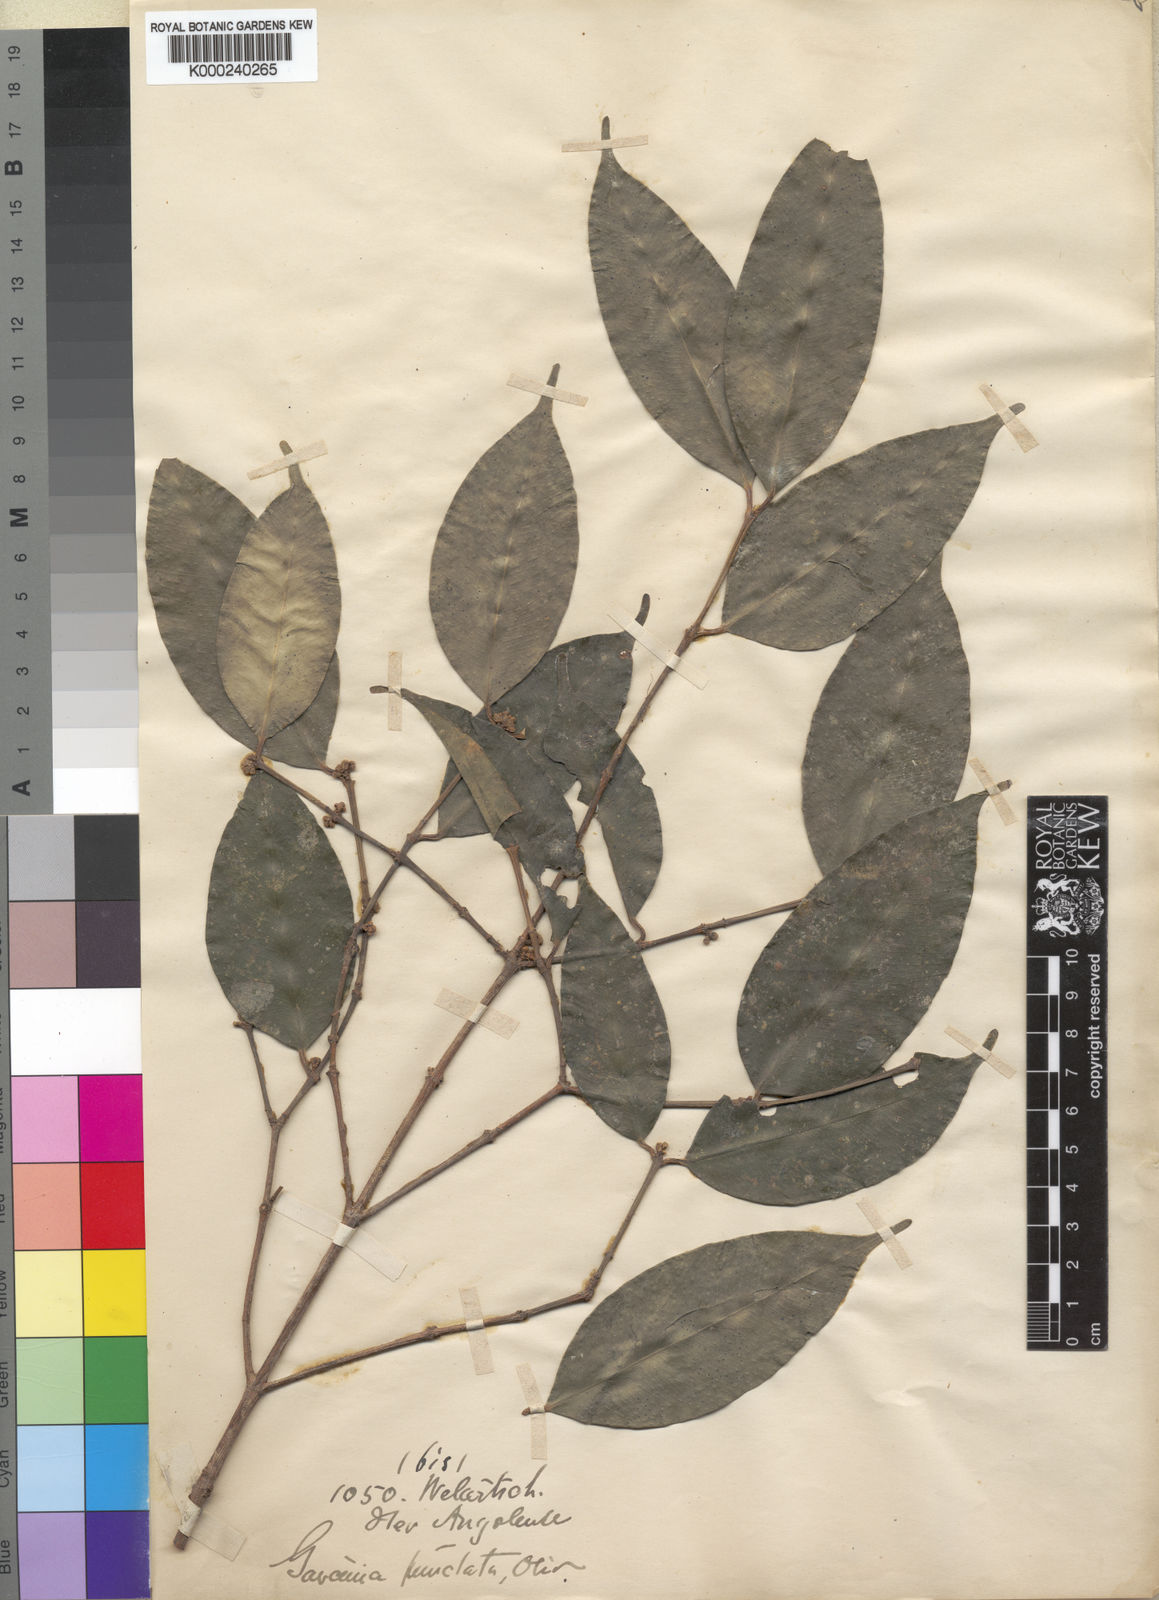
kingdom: Plantae
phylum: Tracheophyta
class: Magnoliopsida
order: Malpighiales
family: Clusiaceae
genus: Garcinia
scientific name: Garcinia punctata
